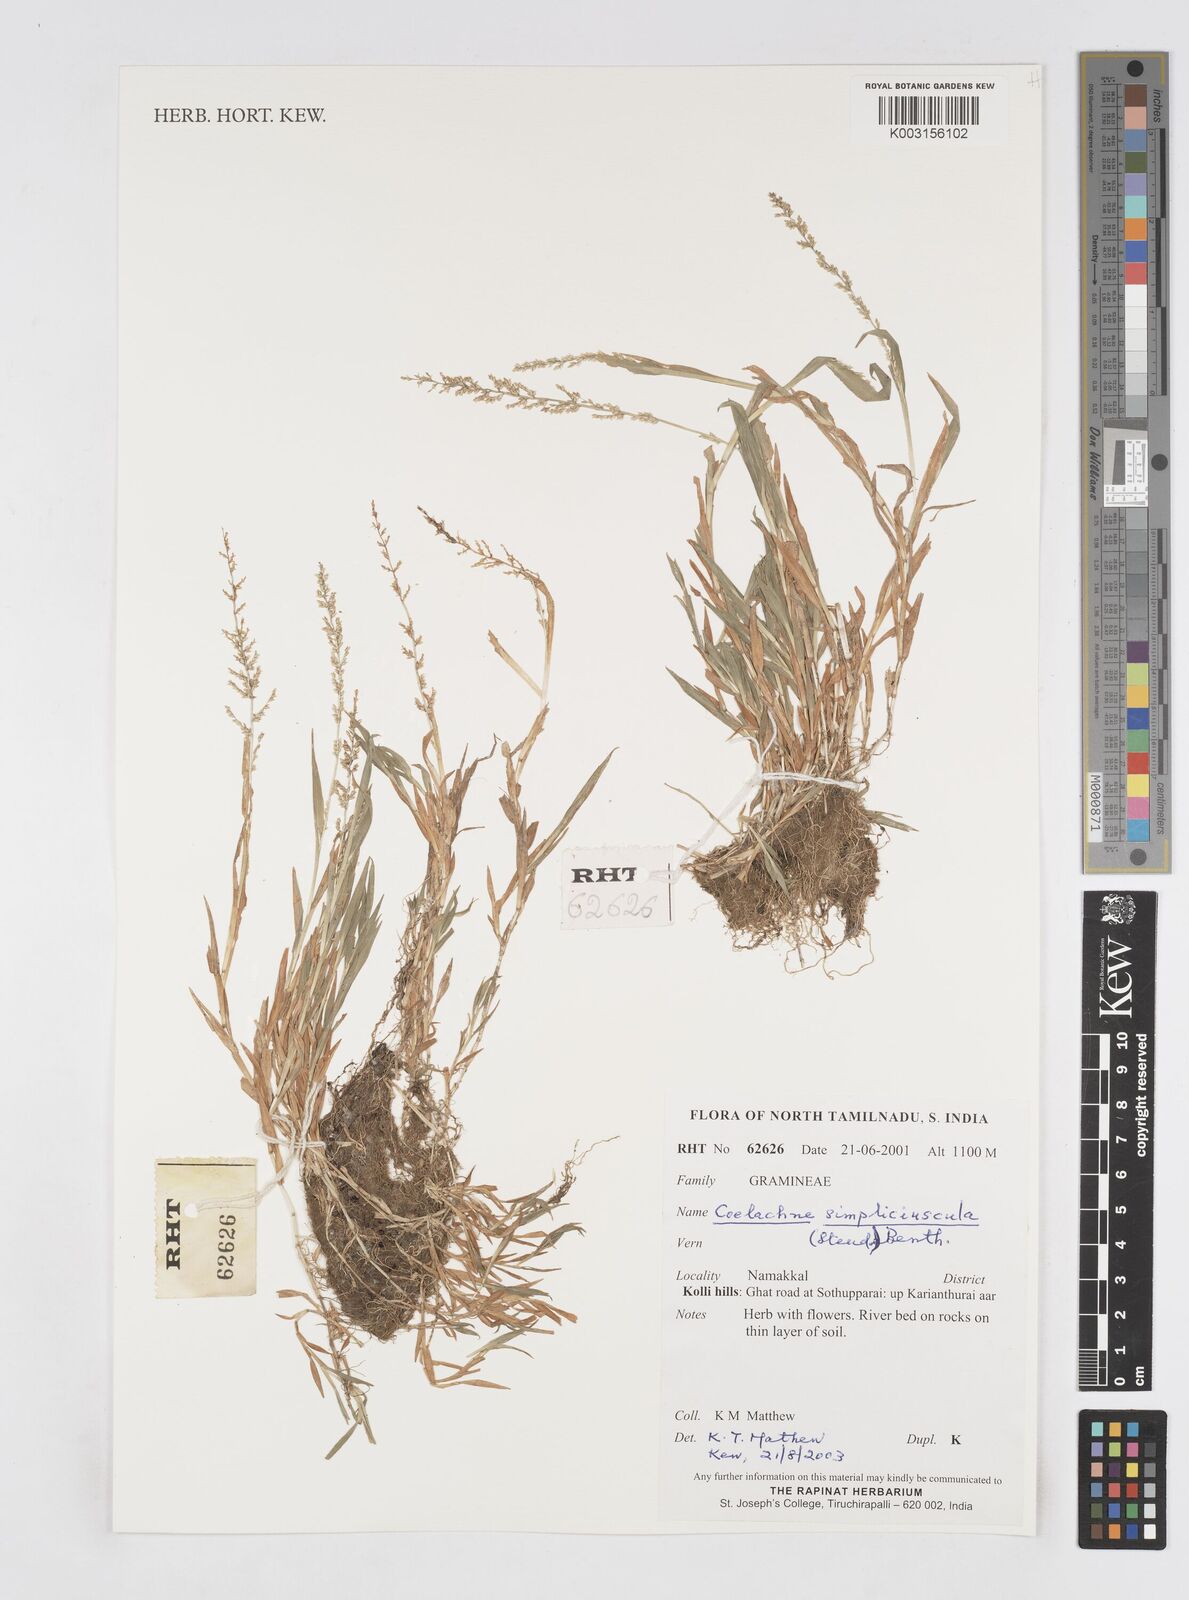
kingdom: Plantae
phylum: Tracheophyta
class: Liliopsida
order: Poales
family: Poaceae
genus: Coelachne
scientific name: Coelachne simpliciuscula
